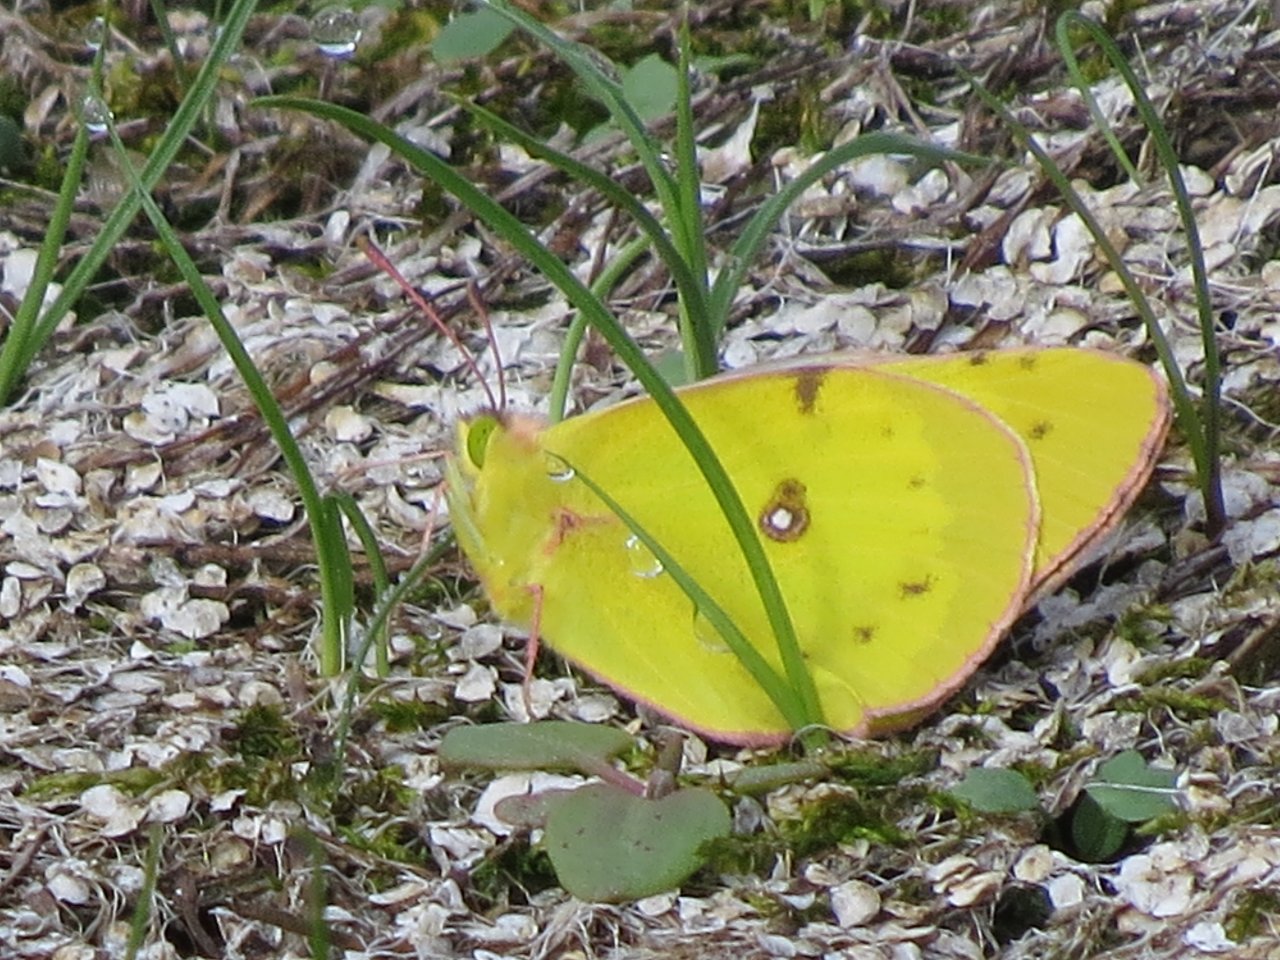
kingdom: Animalia
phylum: Arthropoda
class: Insecta
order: Lepidoptera
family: Pieridae
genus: Colias
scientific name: Colias philodice
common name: Clouded Sulphur
